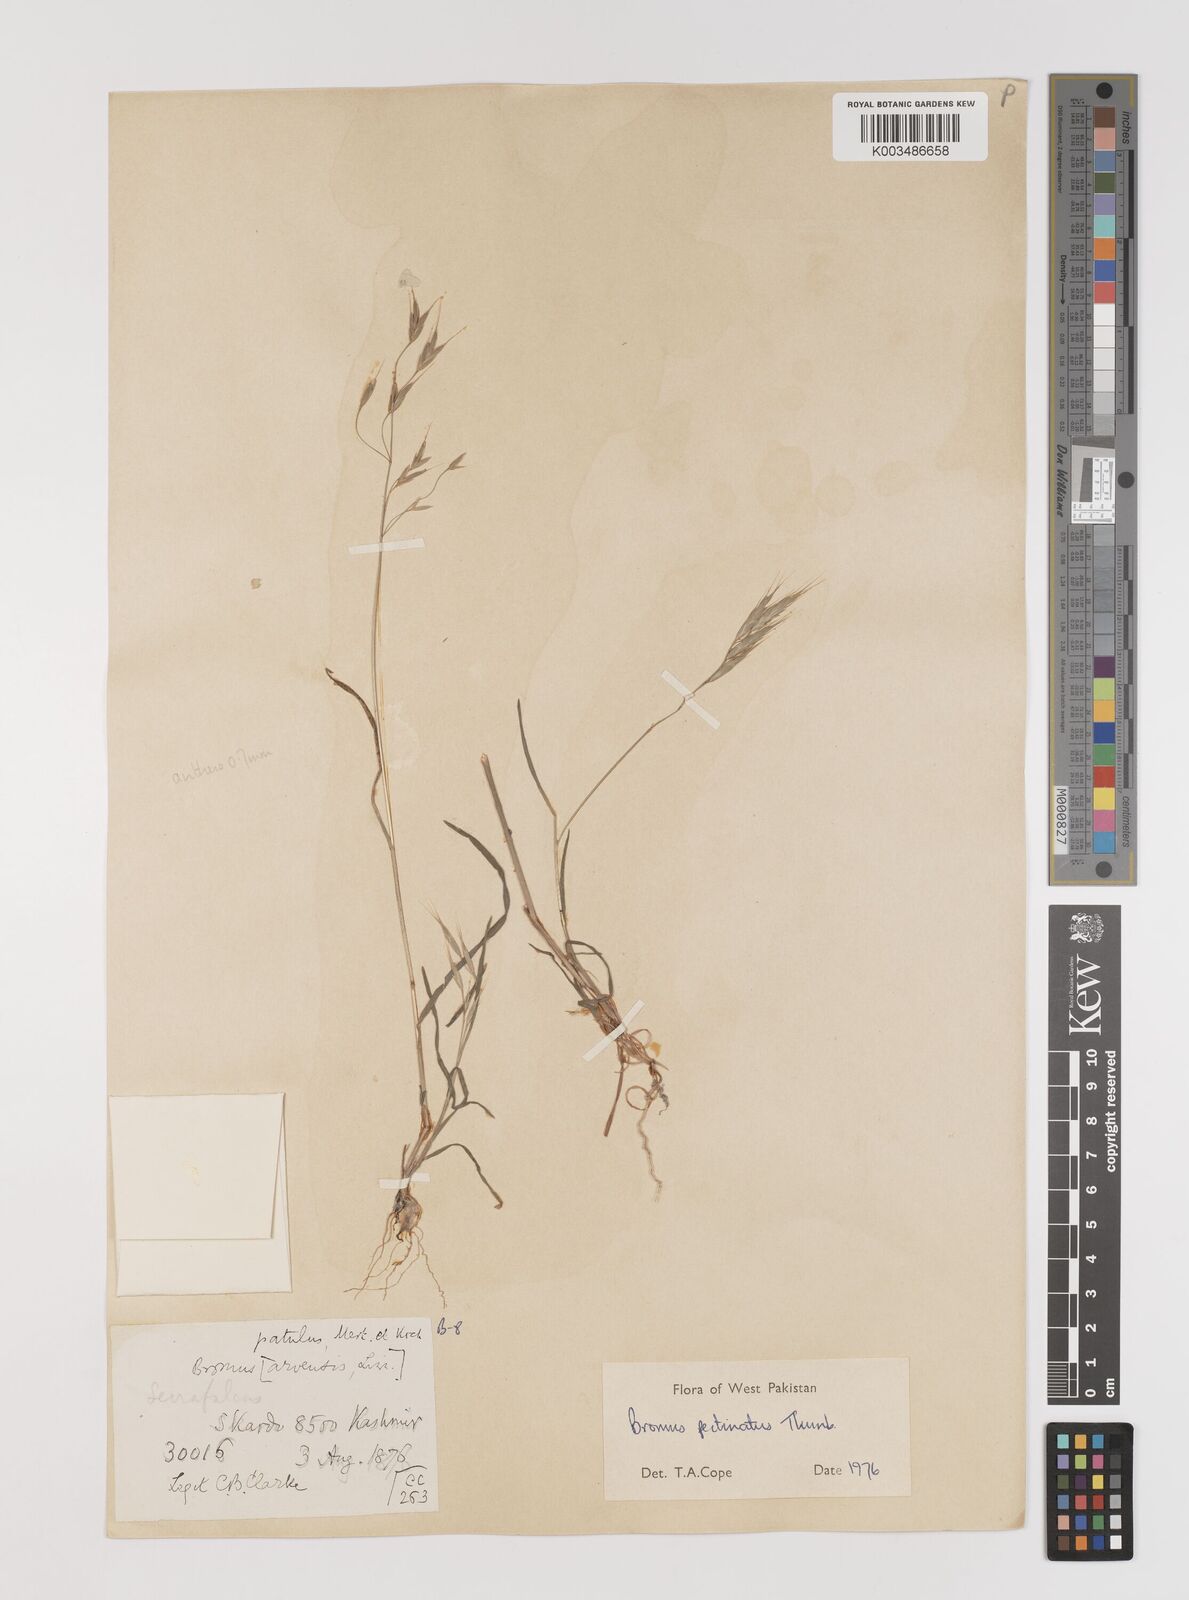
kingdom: Plantae
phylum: Tracheophyta
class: Liliopsida
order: Poales
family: Poaceae
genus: Bromus
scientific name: Bromus pectinatus
